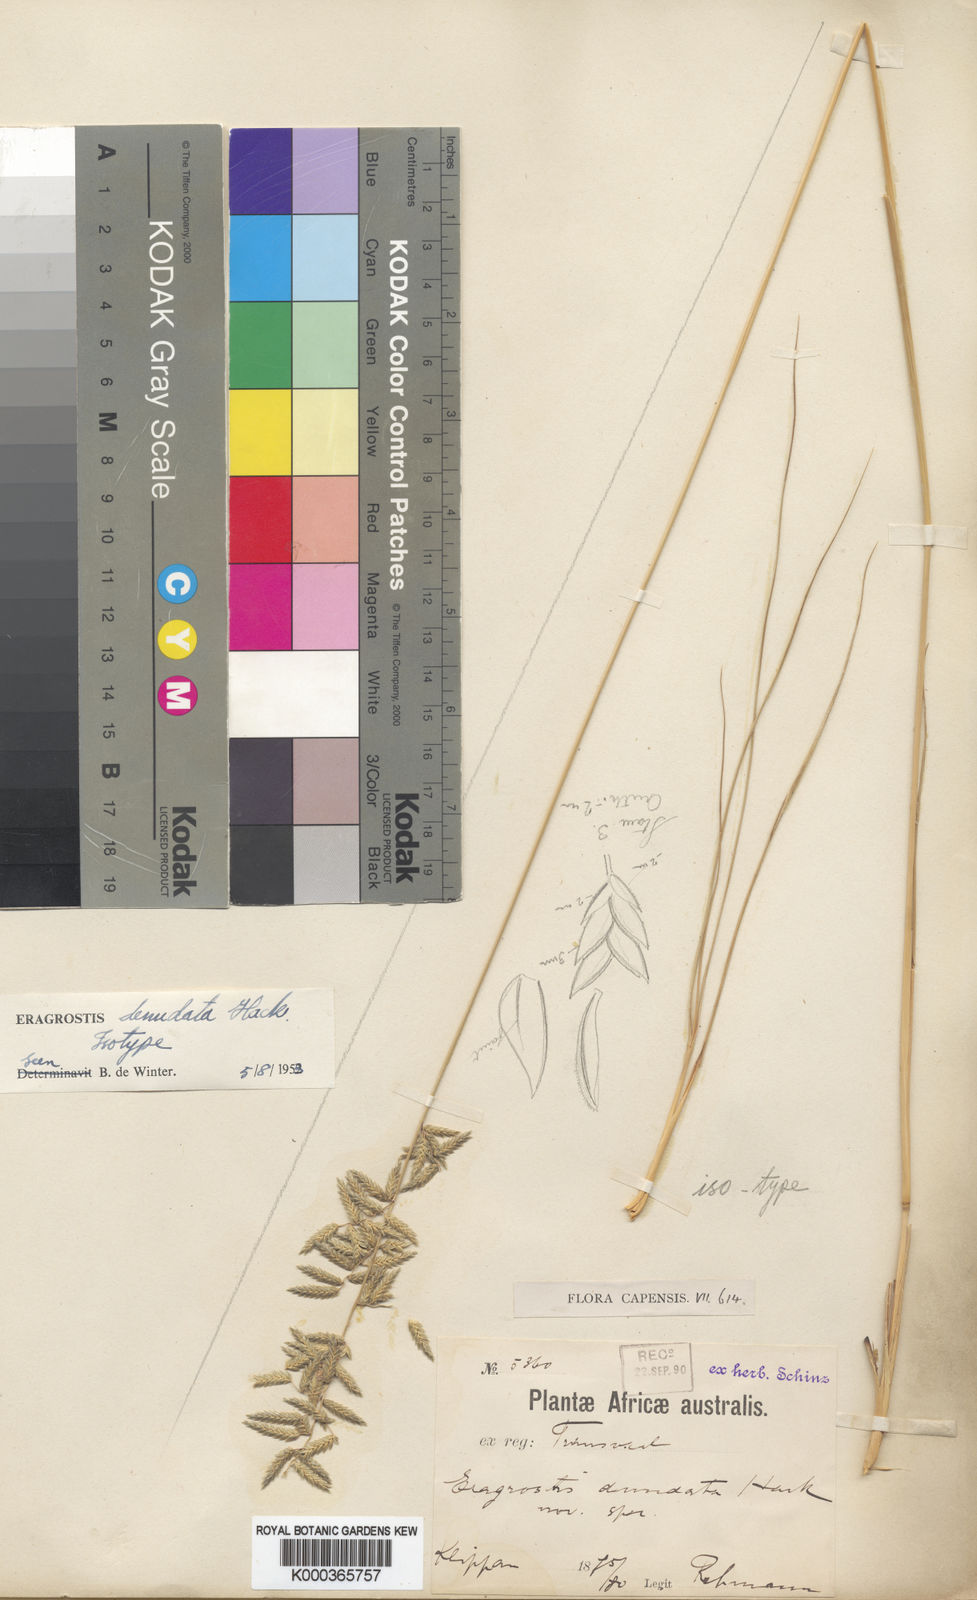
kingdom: Plantae
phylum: Tracheophyta
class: Liliopsida
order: Poales
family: Poaceae
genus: Eragrostis
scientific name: Eragrostis
